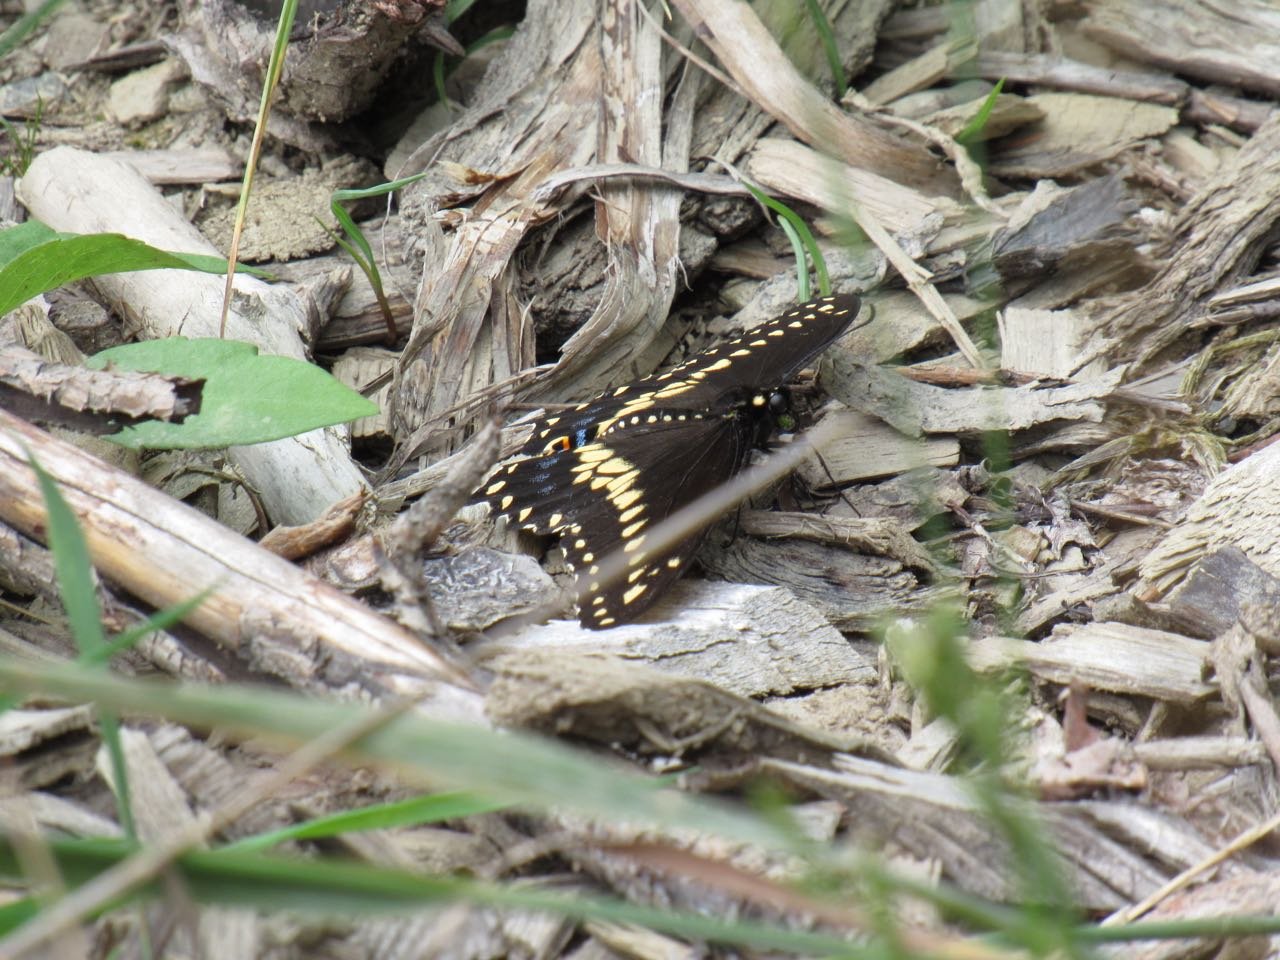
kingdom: Animalia
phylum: Arthropoda
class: Insecta
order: Lepidoptera
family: Papilionidae
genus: Papilio
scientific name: Papilio polyxenes
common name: Black Swallowtail
